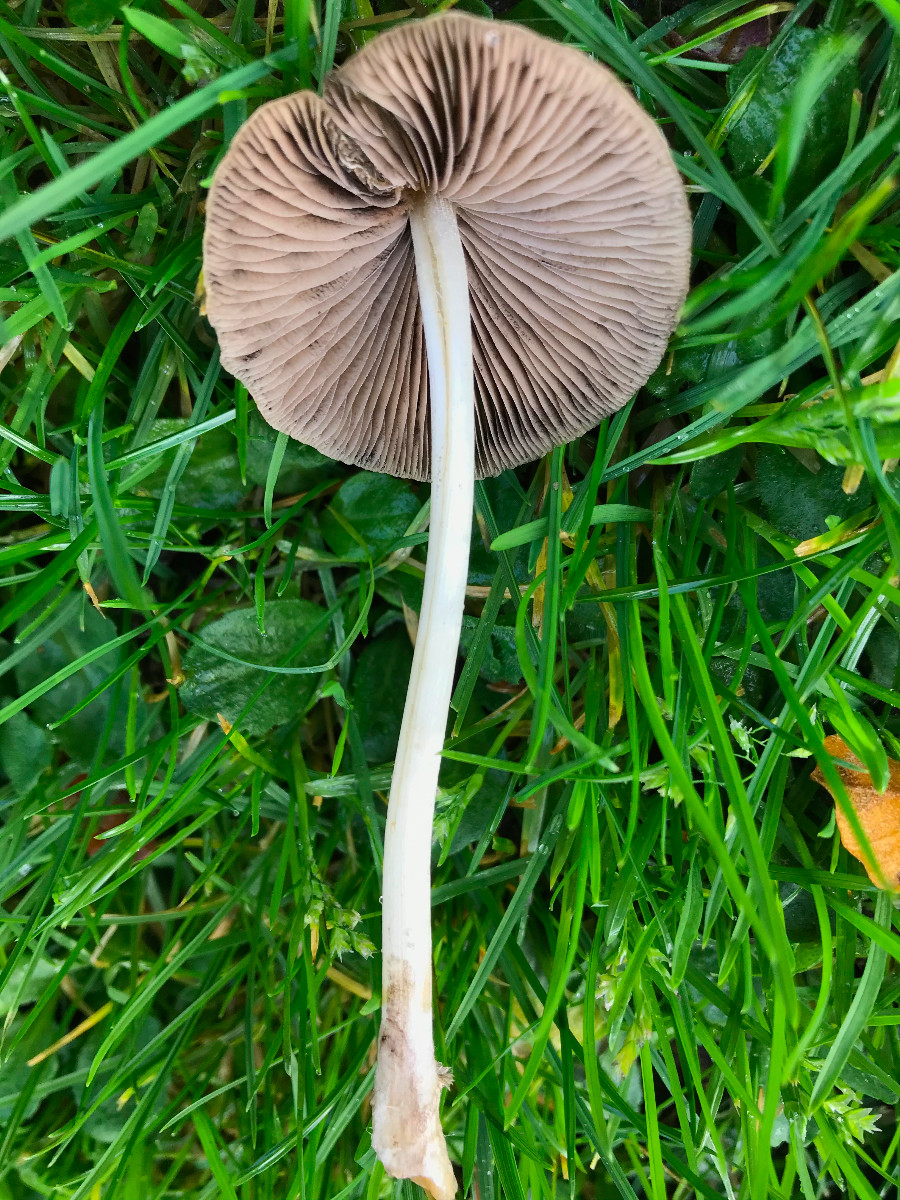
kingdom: Fungi
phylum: Basidiomycota
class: Agaricomycetes
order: Agaricales
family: Psathyrellaceae
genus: Britzelmayria
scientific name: Britzelmayria multipedata
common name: knippe-mørkhat
